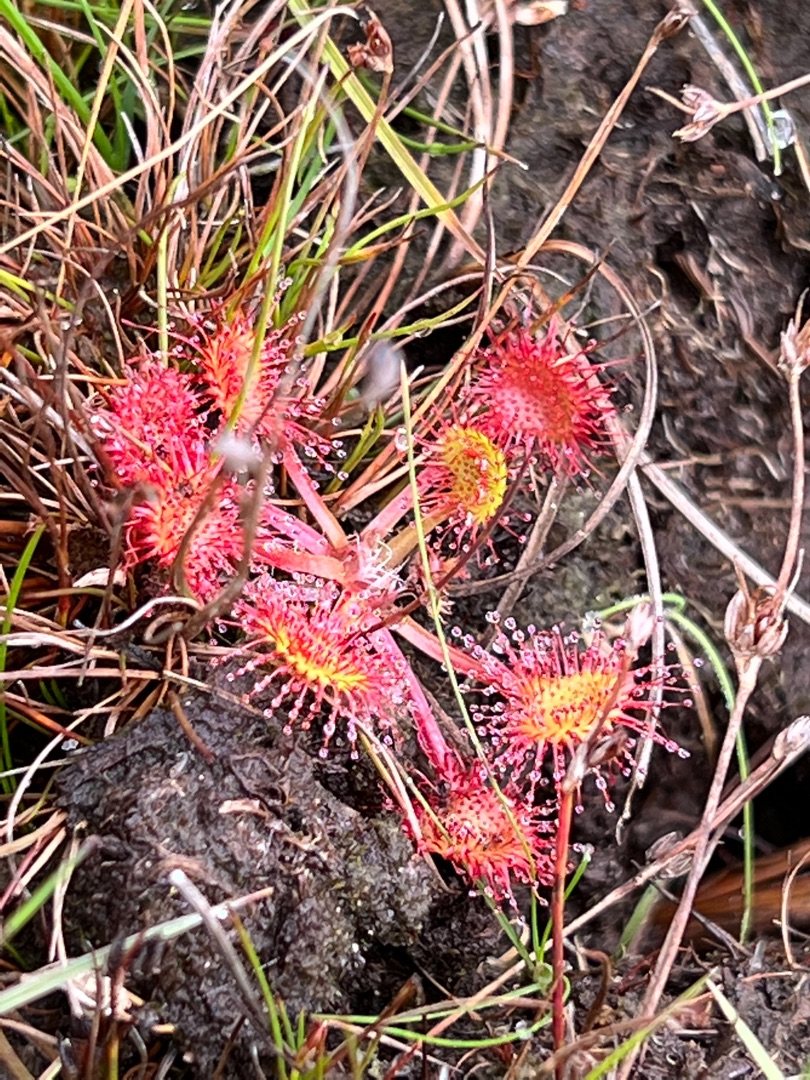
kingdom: Plantae
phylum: Tracheophyta
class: Magnoliopsida
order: Caryophyllales
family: Droseraceae
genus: Drosera
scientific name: Drosera rotundifolia
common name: Rundbladet soldug
